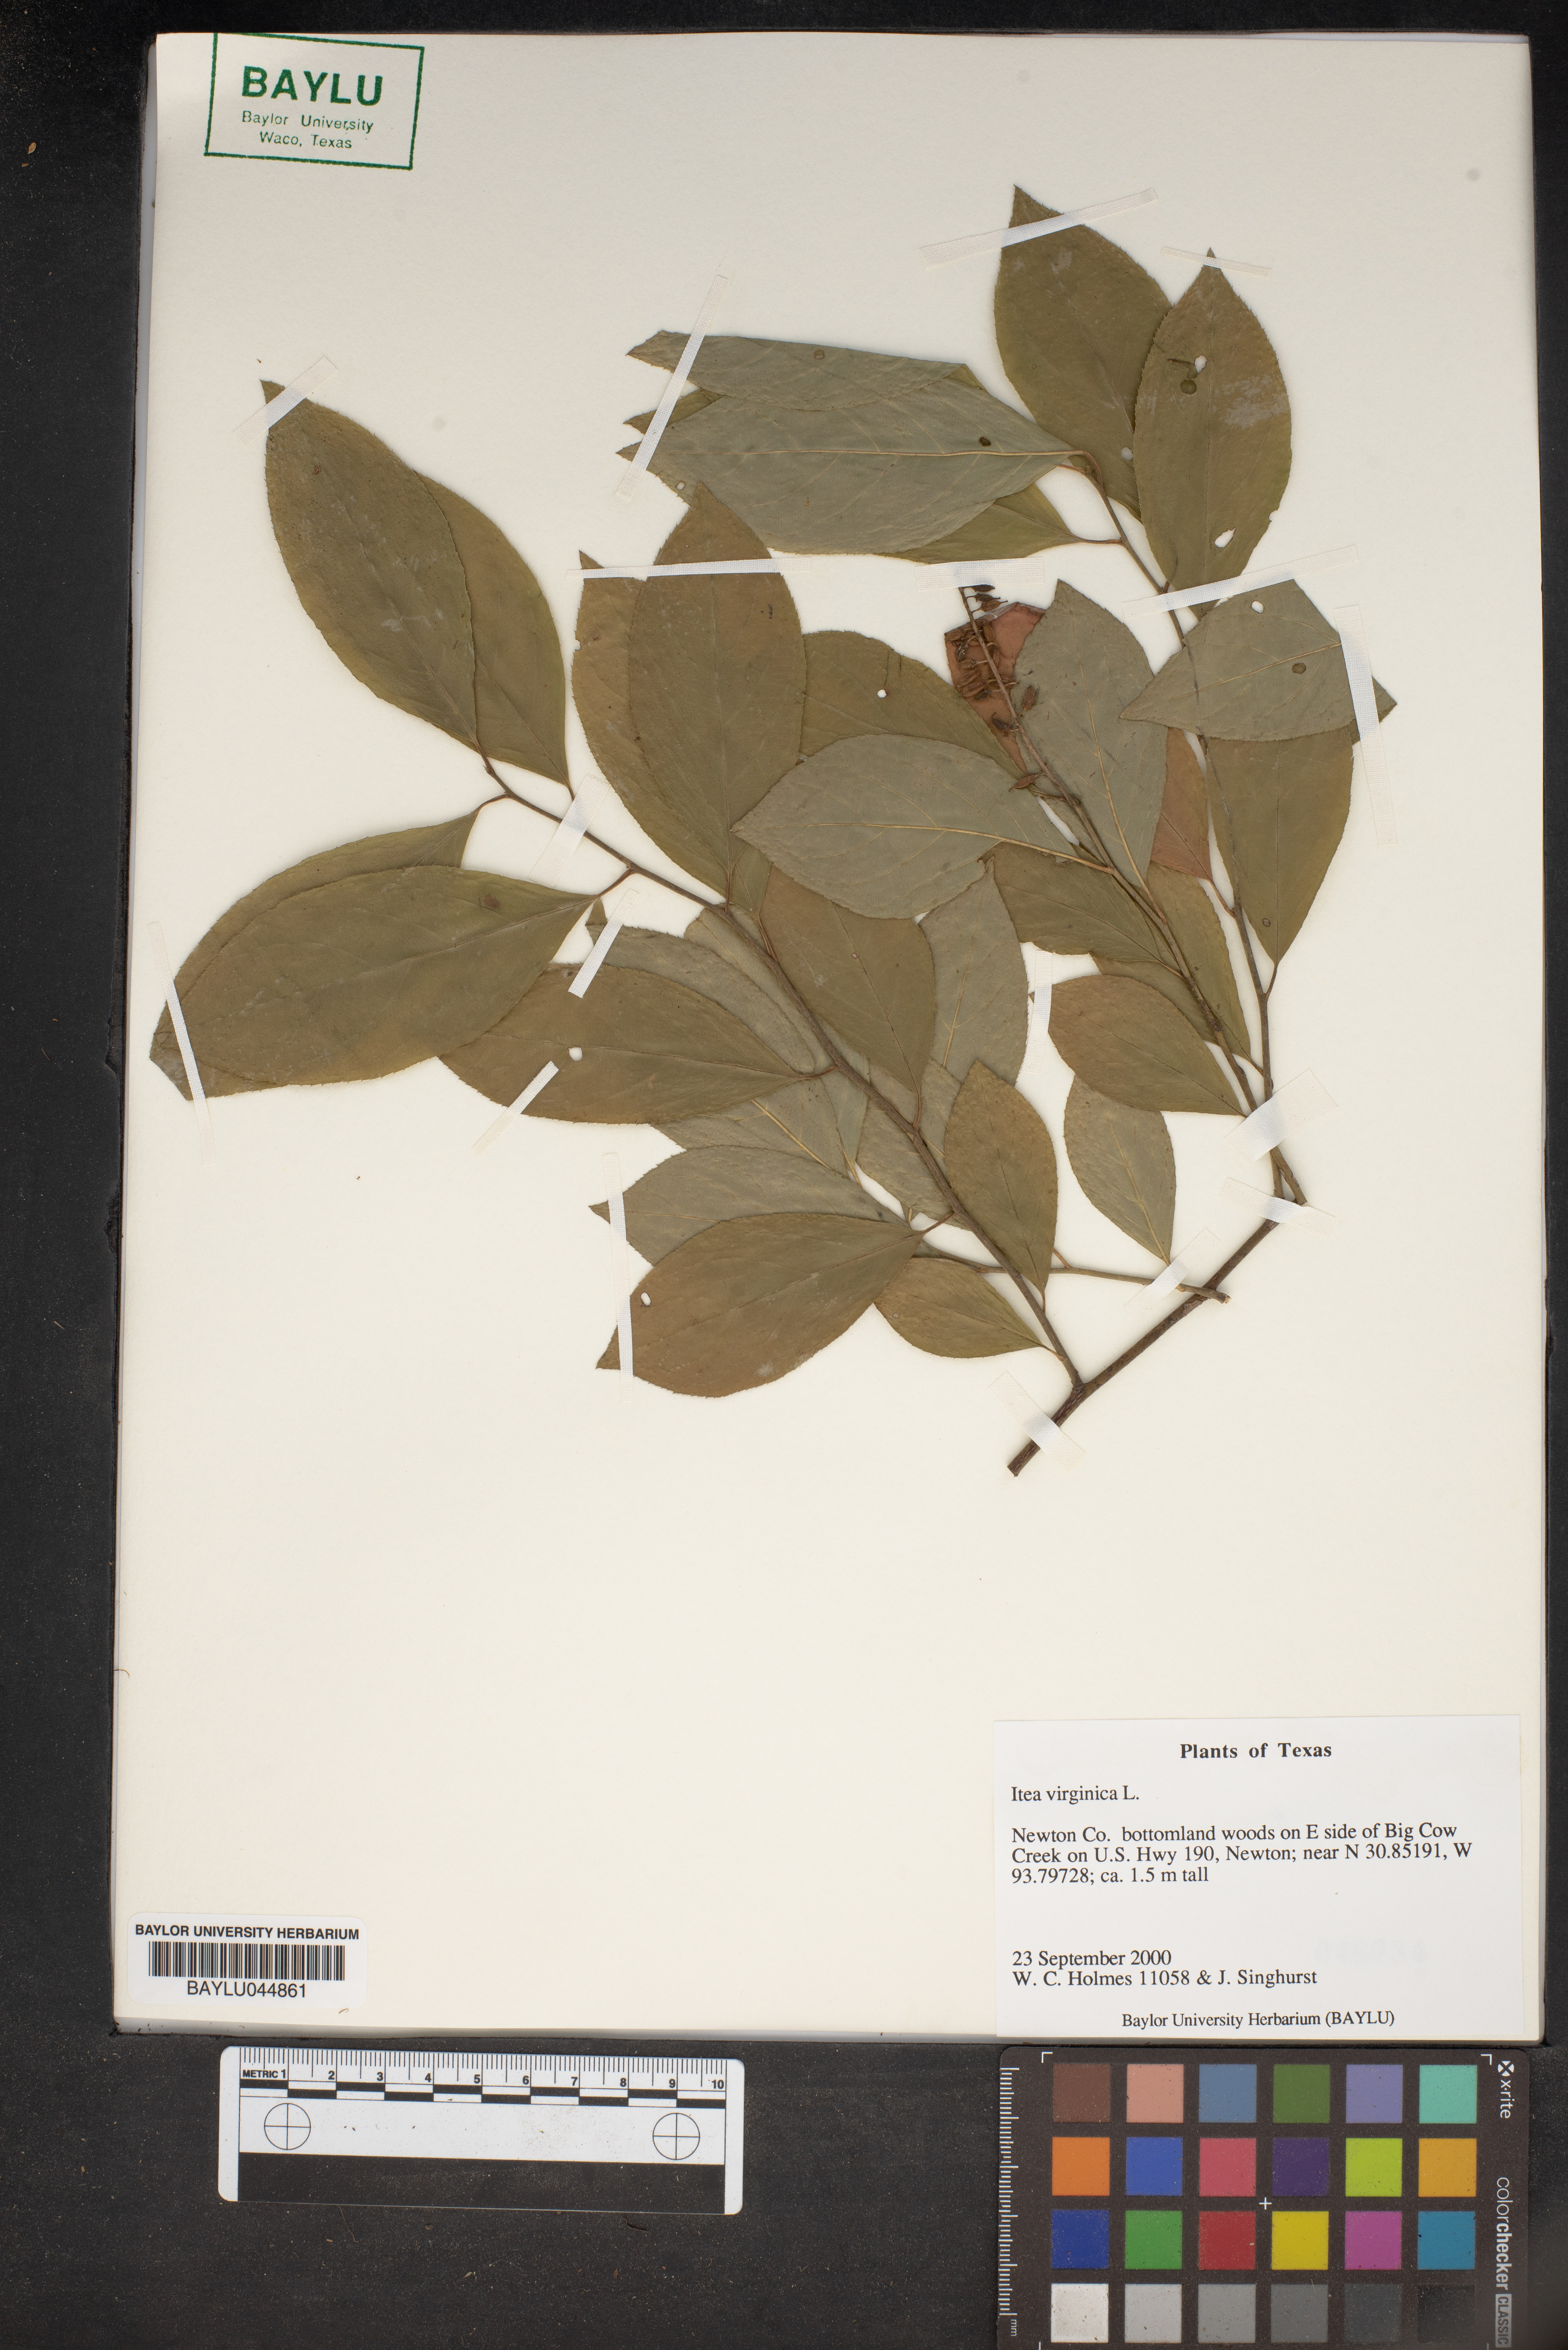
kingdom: Plantae
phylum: Tracheophyta
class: Magnoliopsida
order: Saxifragales
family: Iteaceae
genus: Itea
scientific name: Itea virginica
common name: Sweetspire
